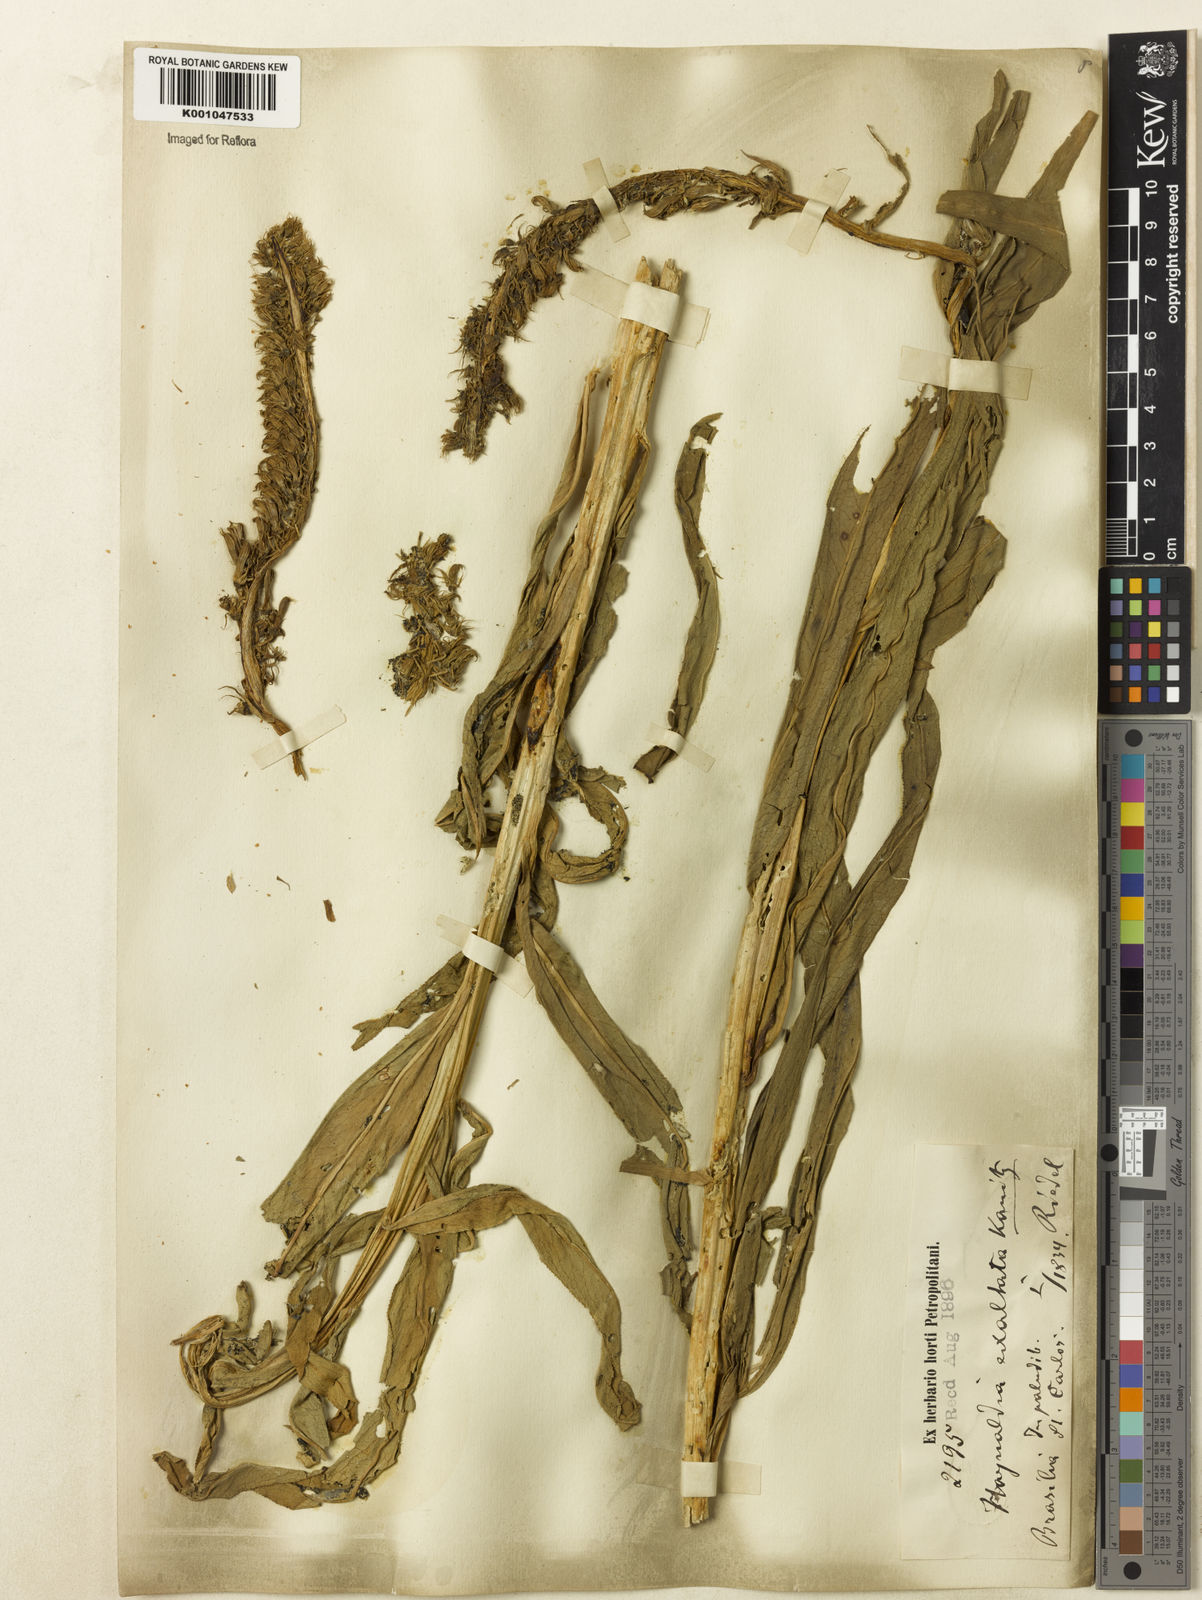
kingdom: Plantae
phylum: Tracheophyta
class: Magnoliopsida
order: Asterales
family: Campanulaceae
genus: Lobelia
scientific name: Lobelia exaltata
